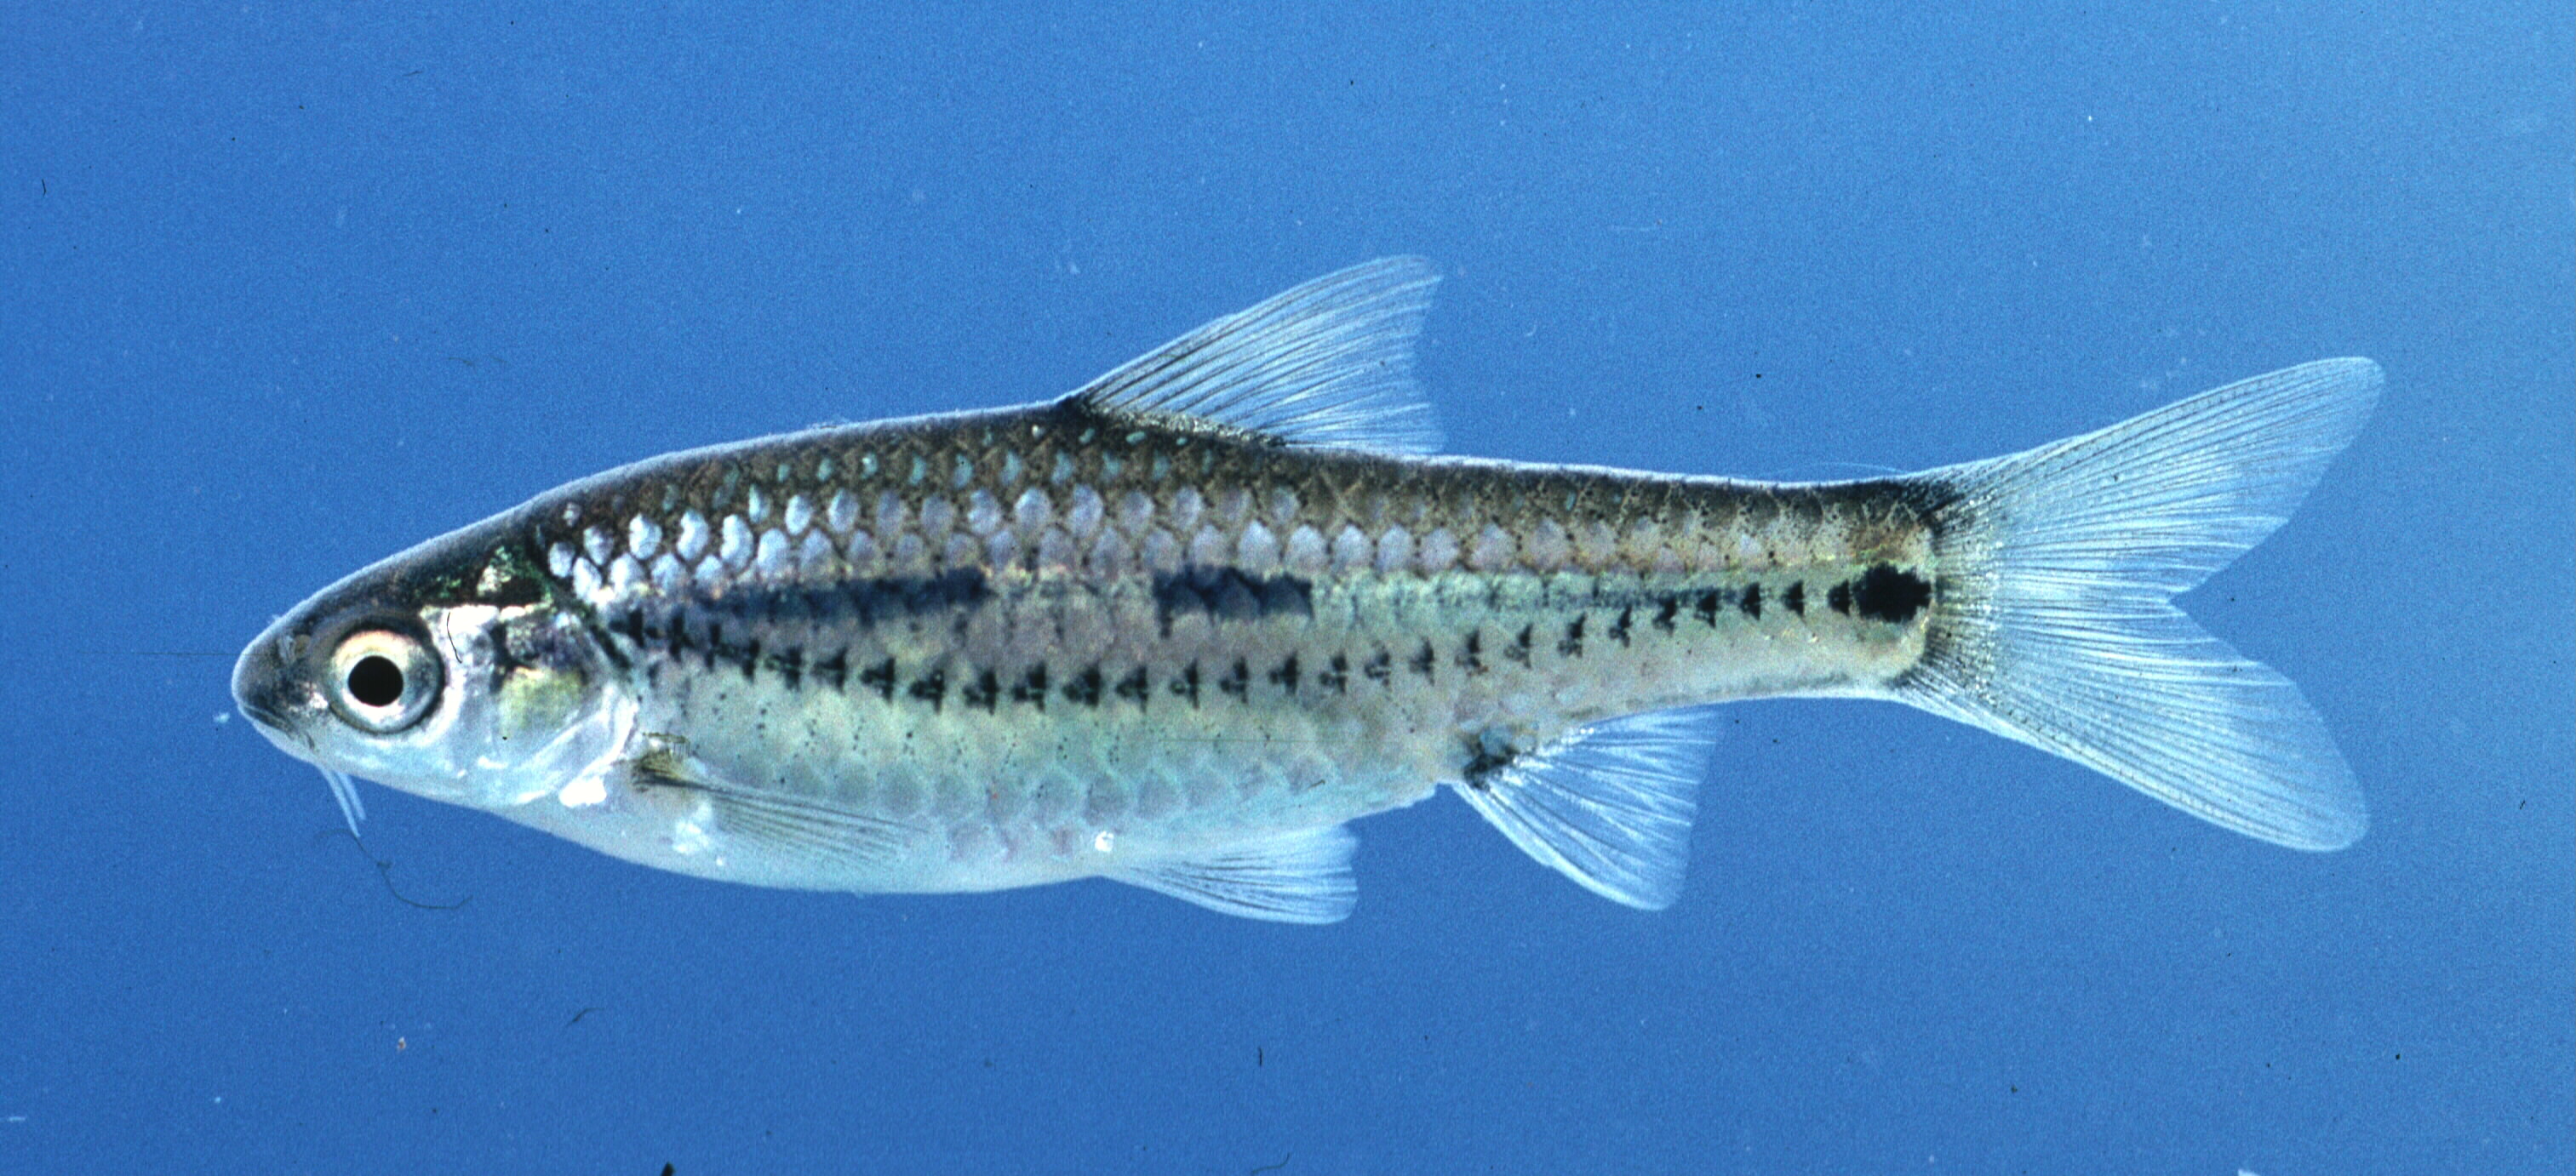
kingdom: Animalia
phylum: Chordata
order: Cypriniformes
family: Cyprinidae
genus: Enteromius
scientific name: Enteromius viviparus
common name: Bowstripe barb
